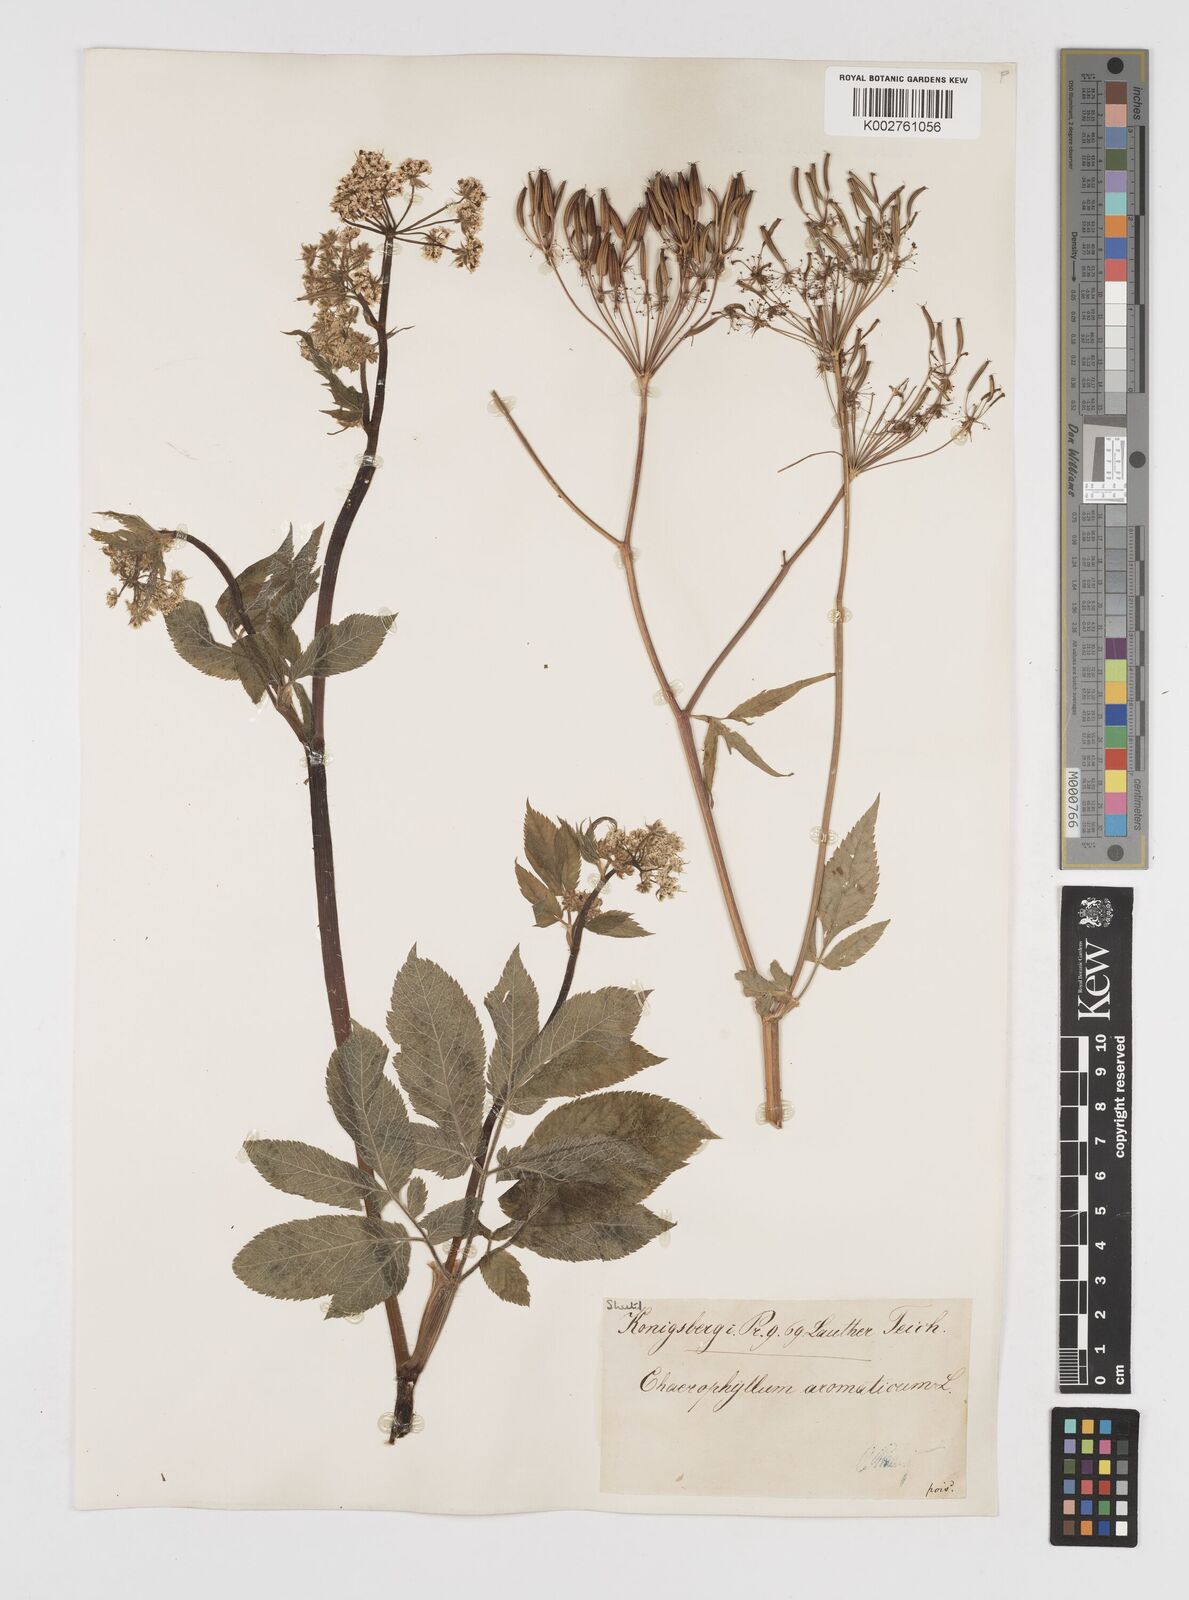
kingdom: Plantae
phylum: Tracheophyta
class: Magnoliopsida
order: Apiales
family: Apiaceae
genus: Chaerophyllum
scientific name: Chaerophyllum aromaticum
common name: Broadleaf chervil
